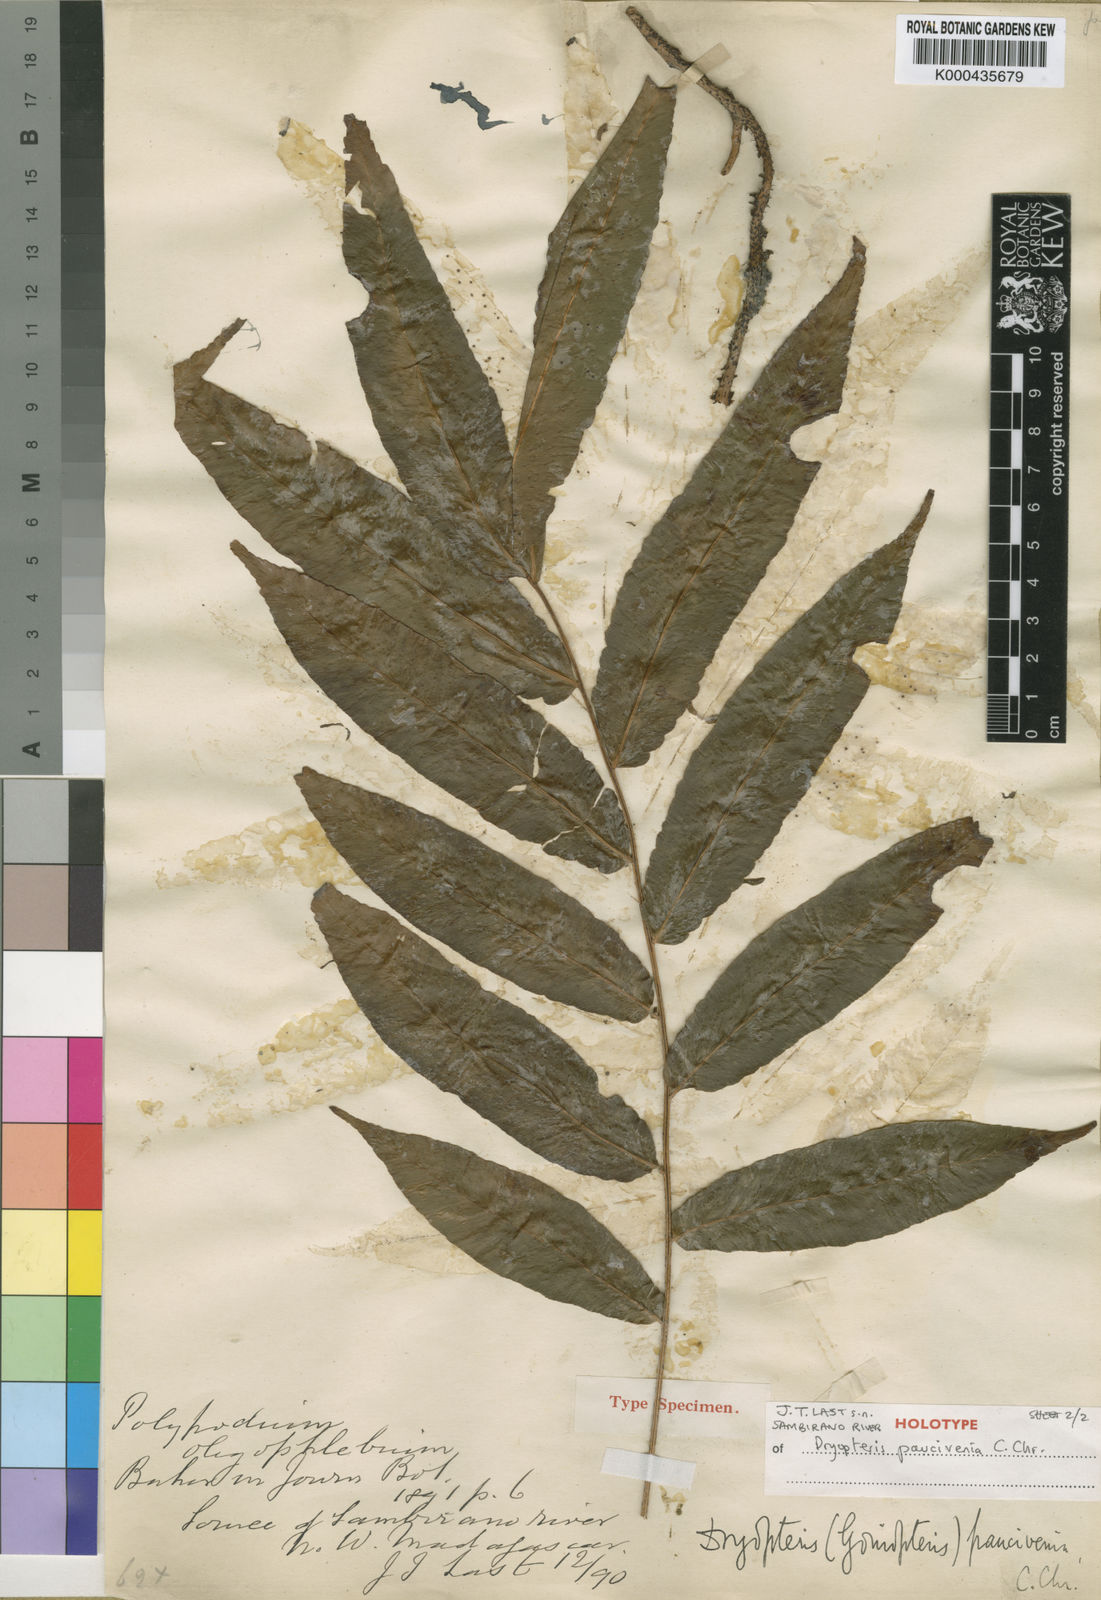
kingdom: Plantae
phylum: Tracheophyta
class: Polypodiopsida
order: Polypodiales
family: Tectariaceae
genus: Arthropteris
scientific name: Arthropteris paucivenia
